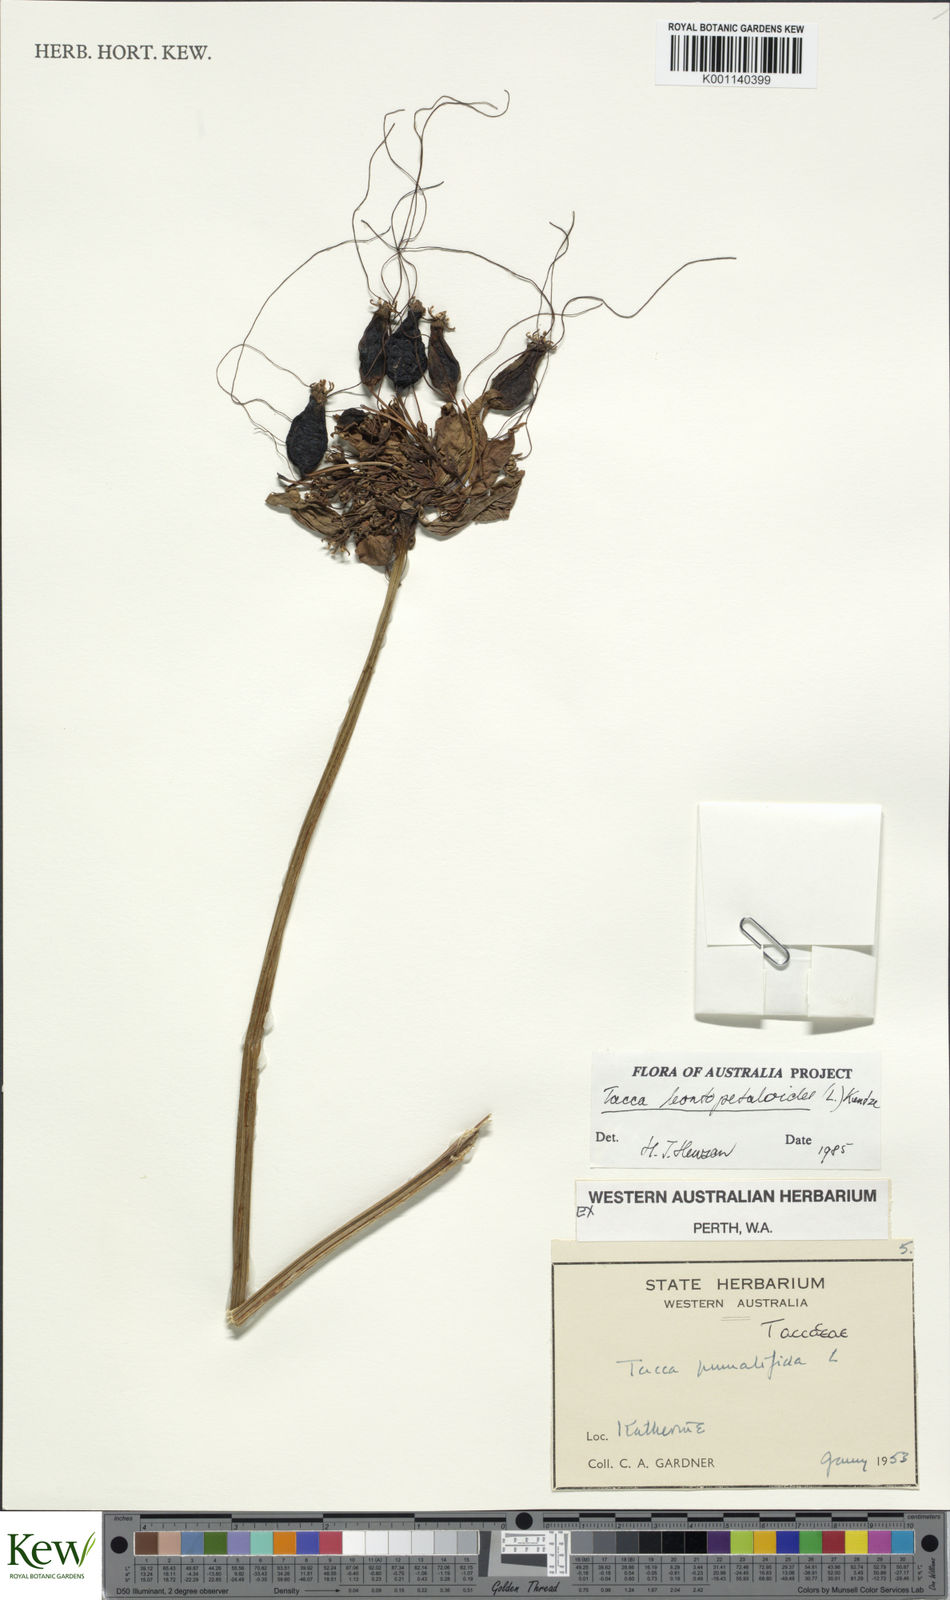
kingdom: Plantae
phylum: Tracheophyta
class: Liliopsida
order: Dioscoreales
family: Dioscoreaceae
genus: Tacca
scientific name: Tacca leontopetaloides
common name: Arrowroot
